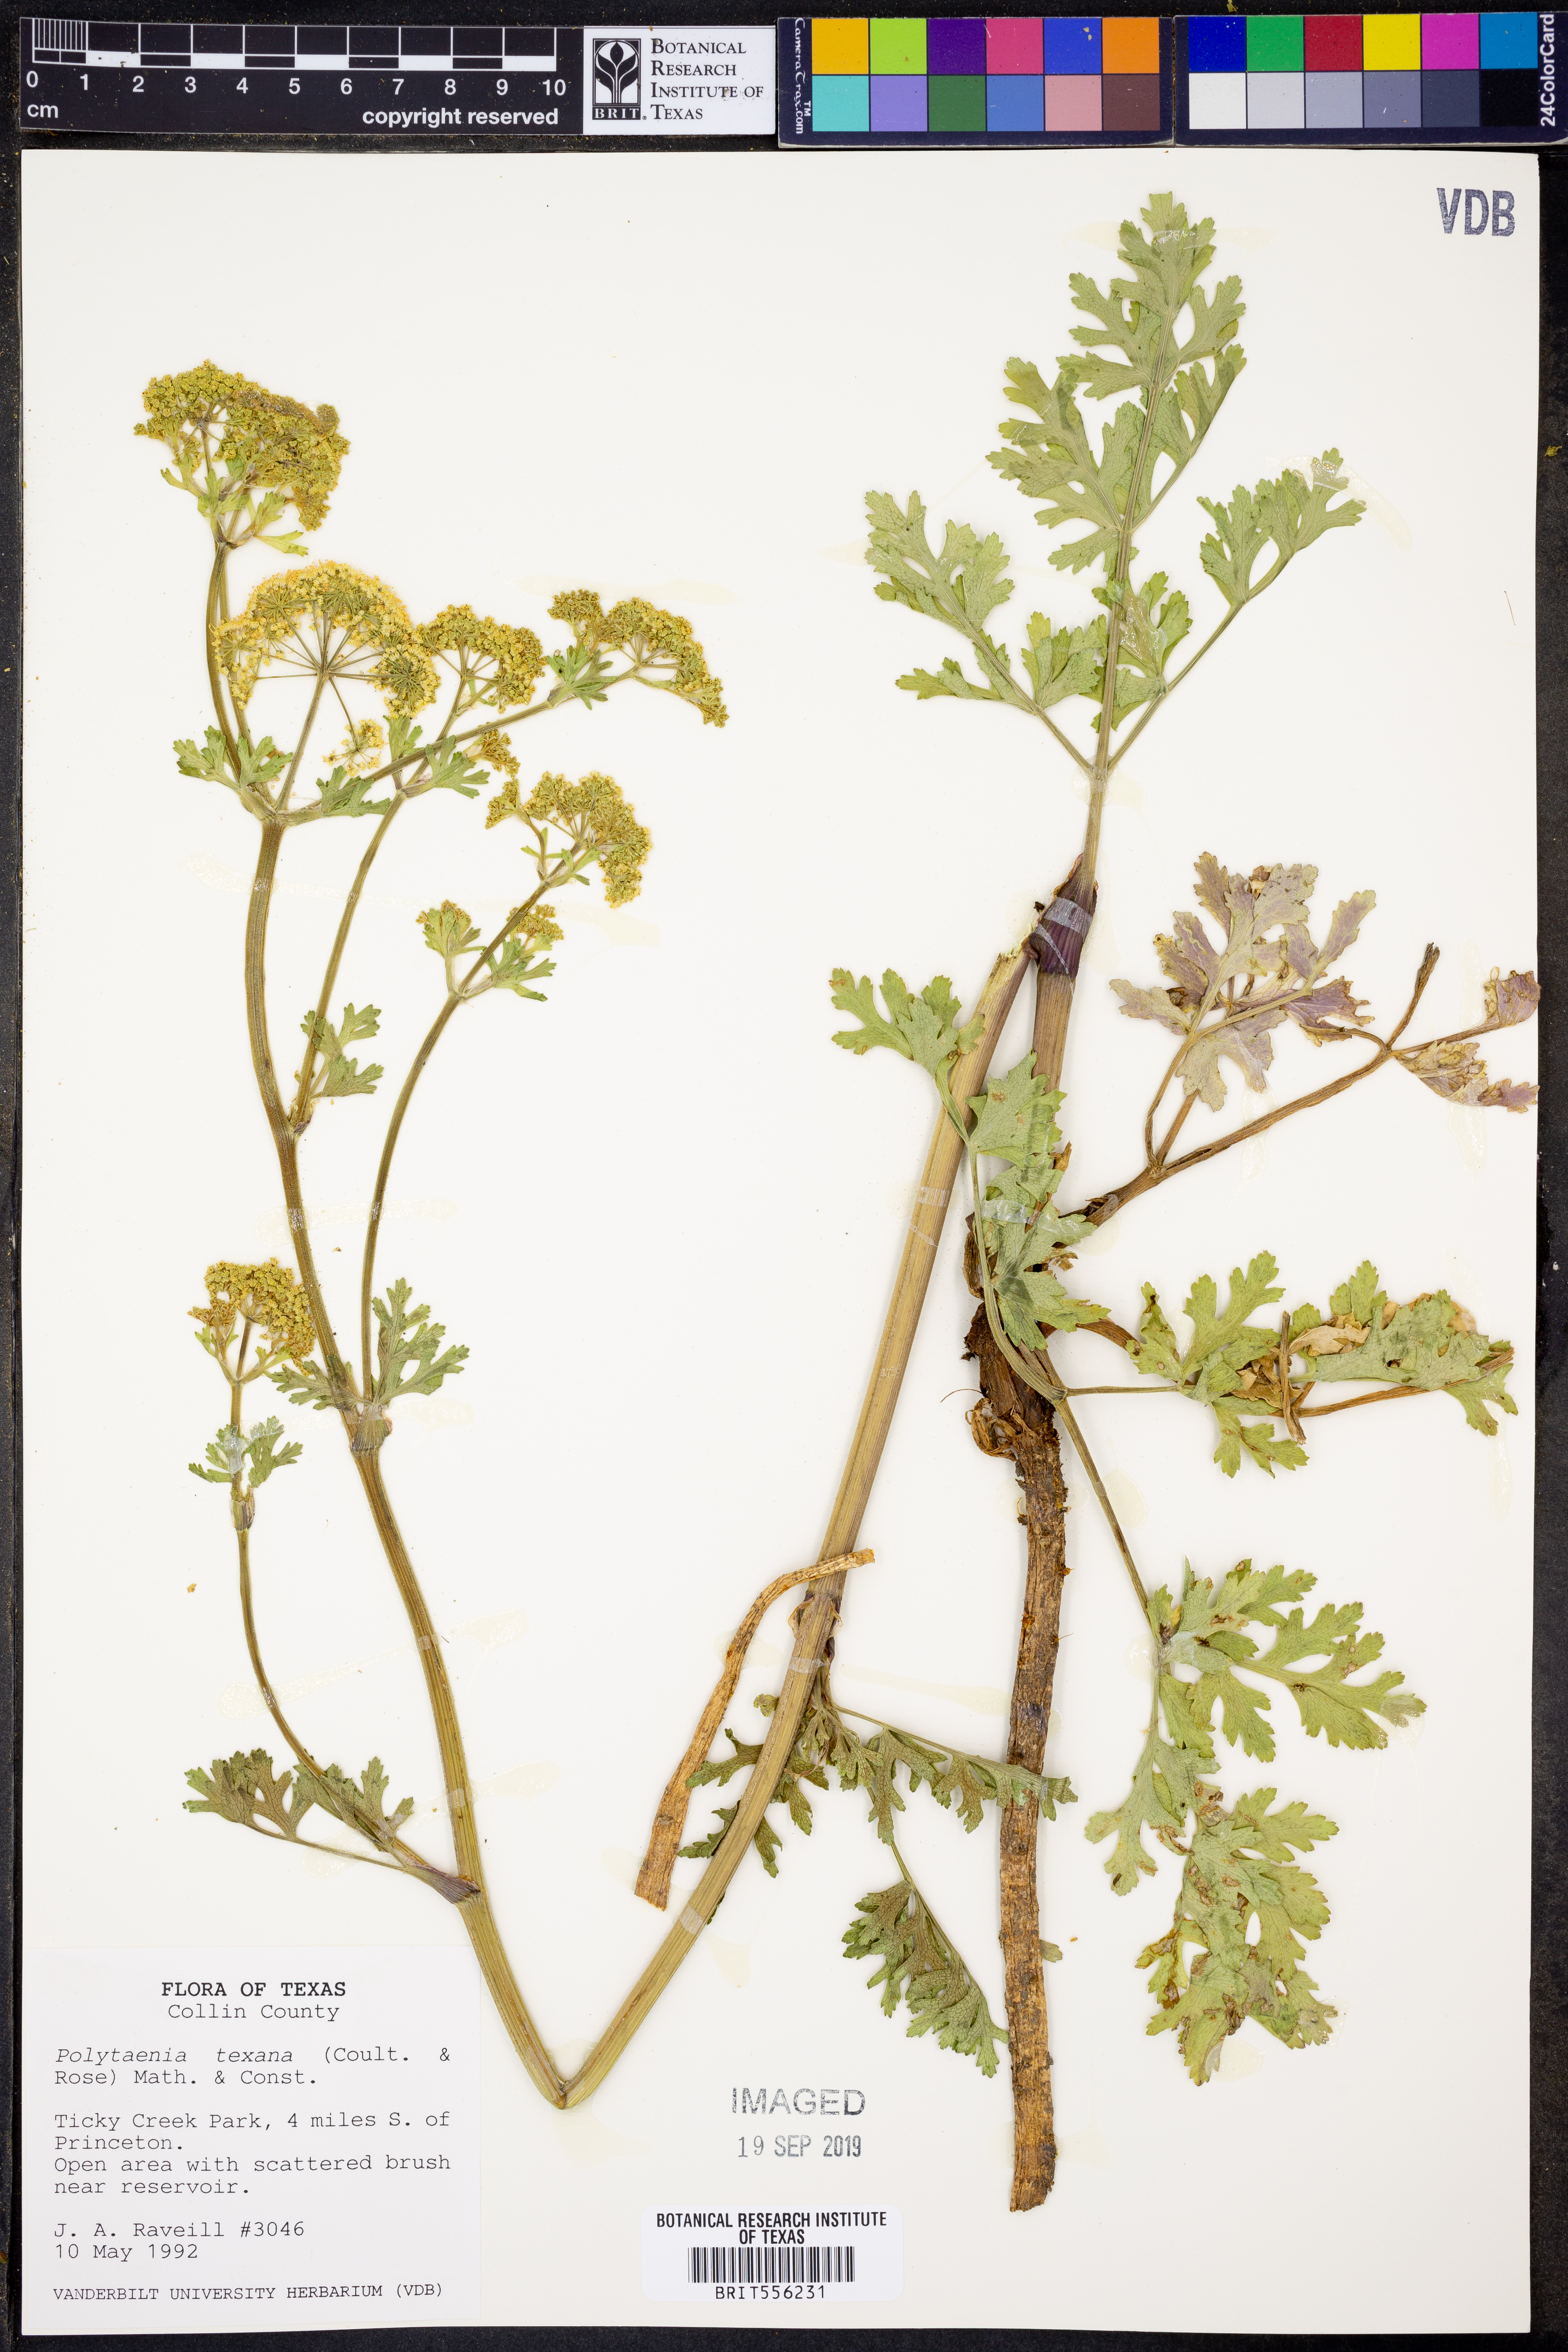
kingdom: Plantae
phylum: Tracheophyta
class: Magnoliopsida
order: Apiales
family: Apiaceae
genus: Polytaenia
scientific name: Polytaenia texana
